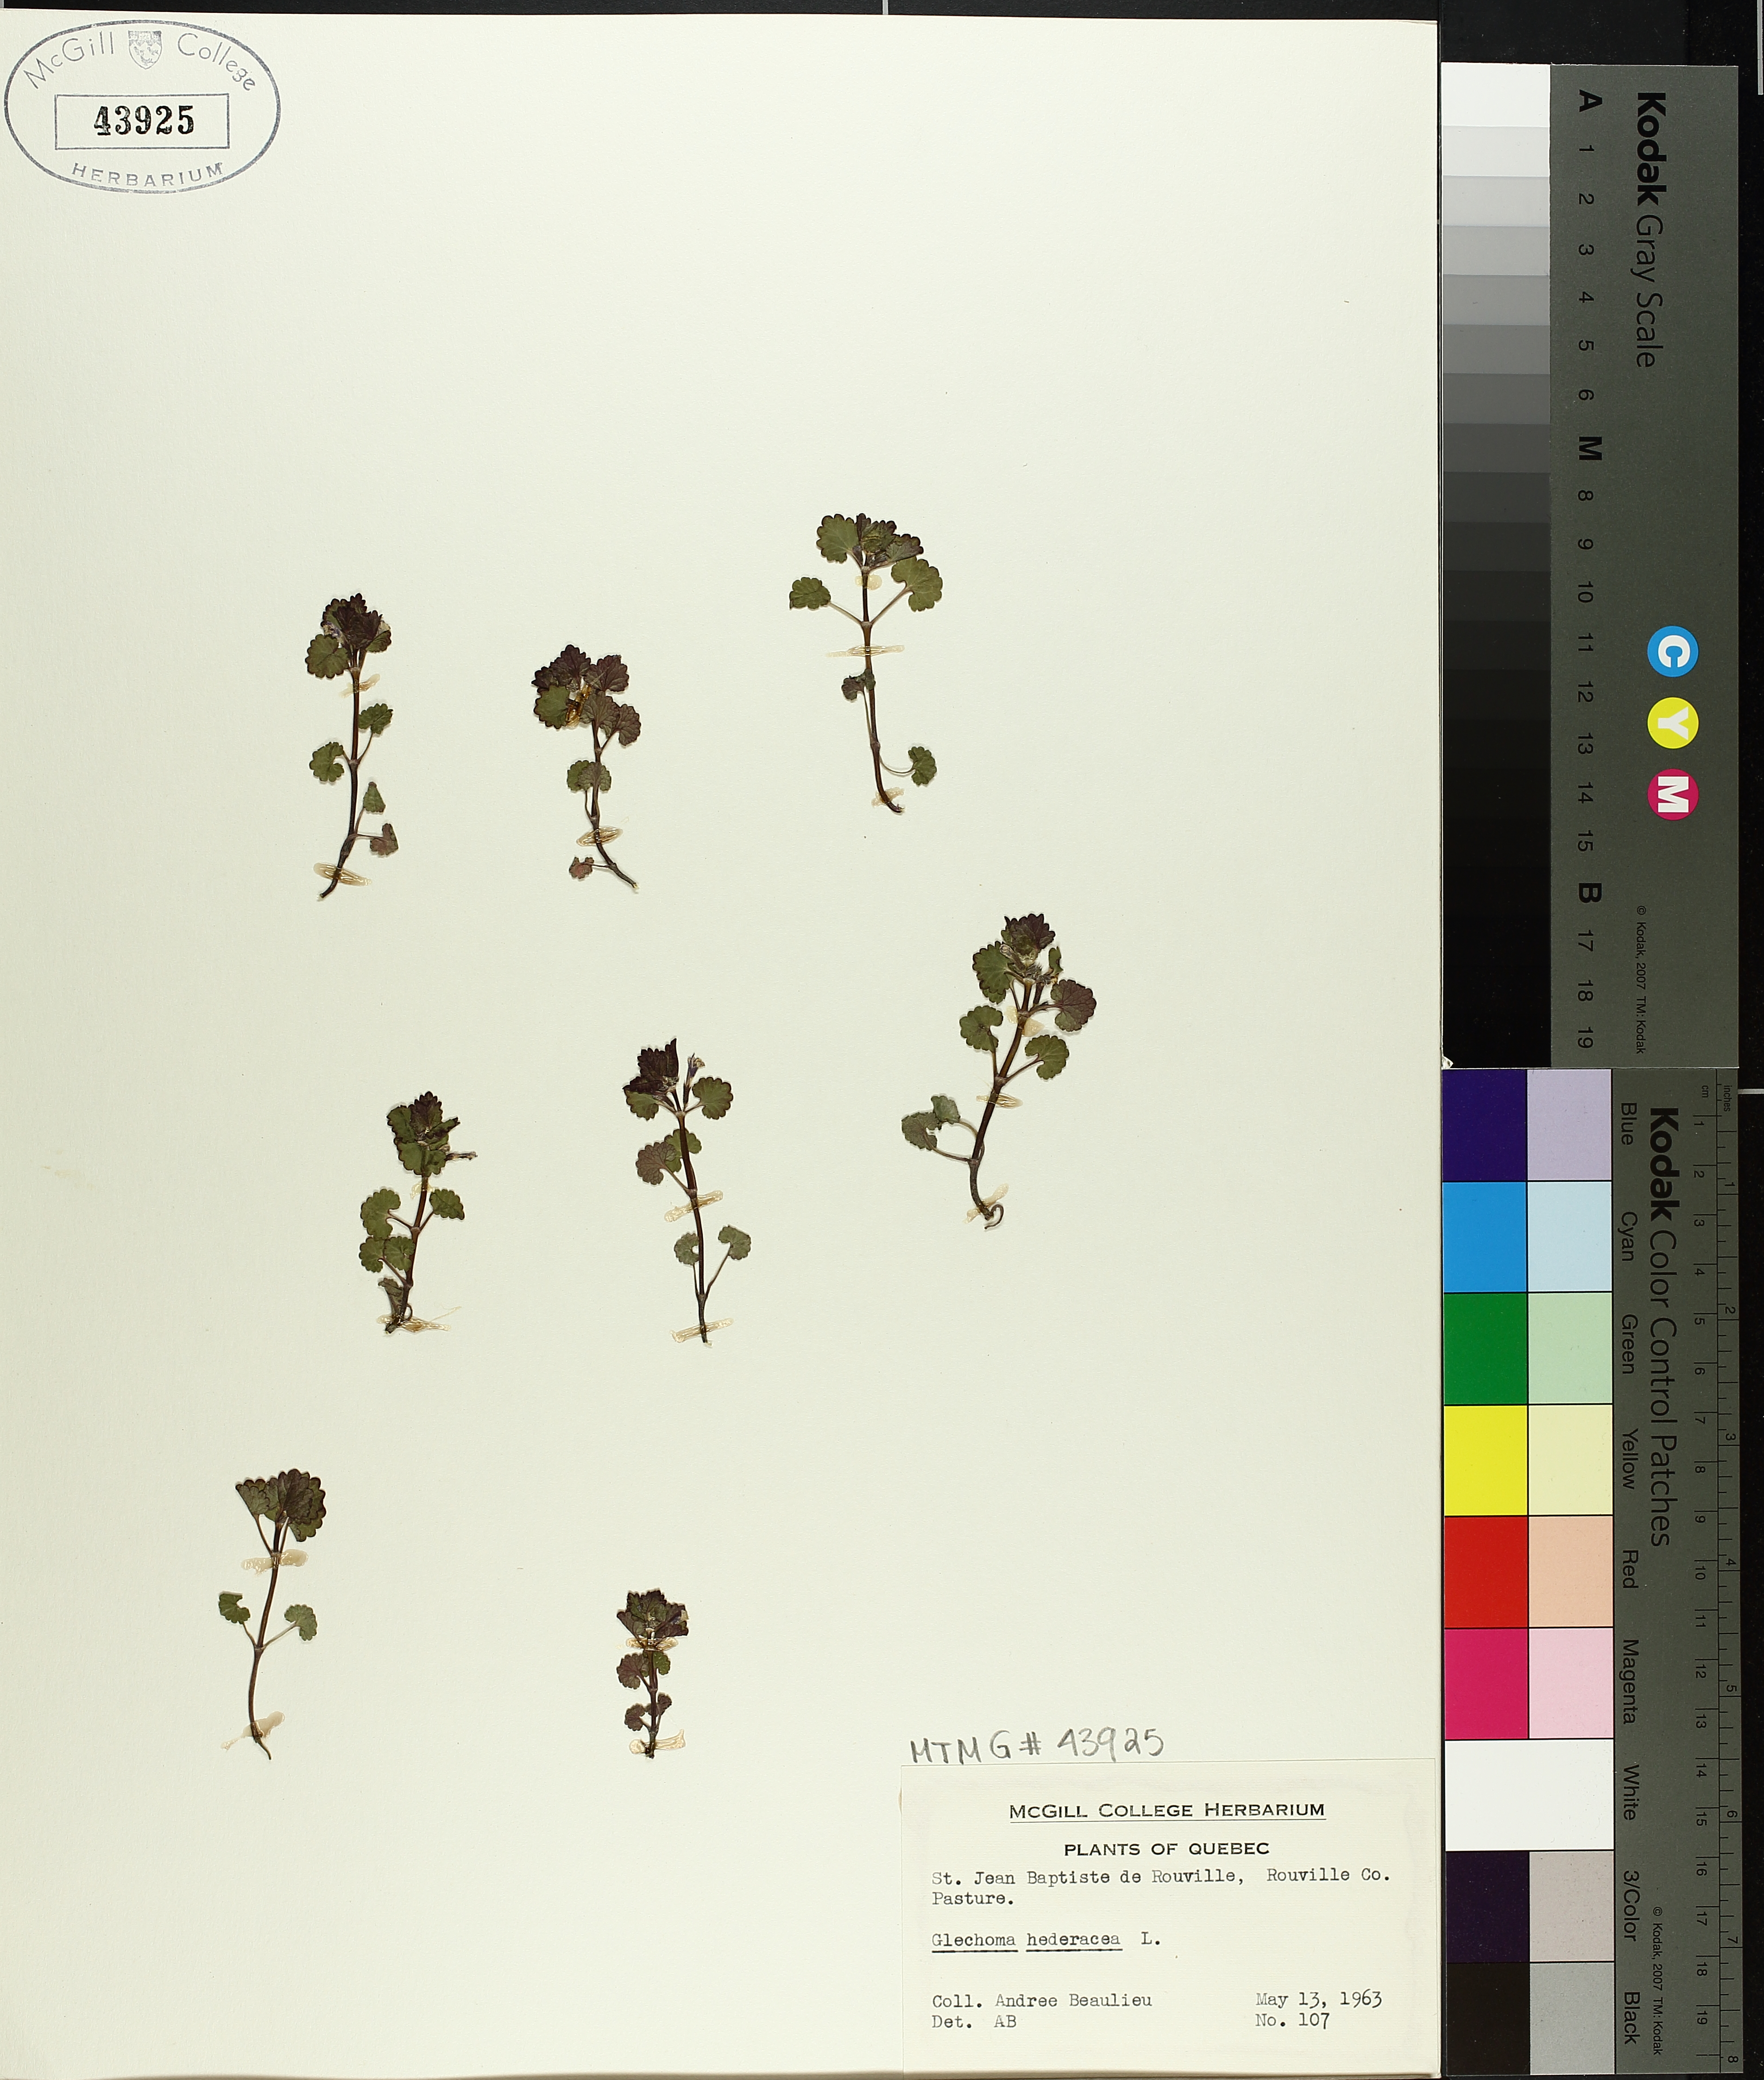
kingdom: Plantae
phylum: Tracheophyta
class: Magnoliopsida
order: Lamiales
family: Lamiaceae
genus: Glechoma
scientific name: Glechoma hederacea
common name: Ground ivy
